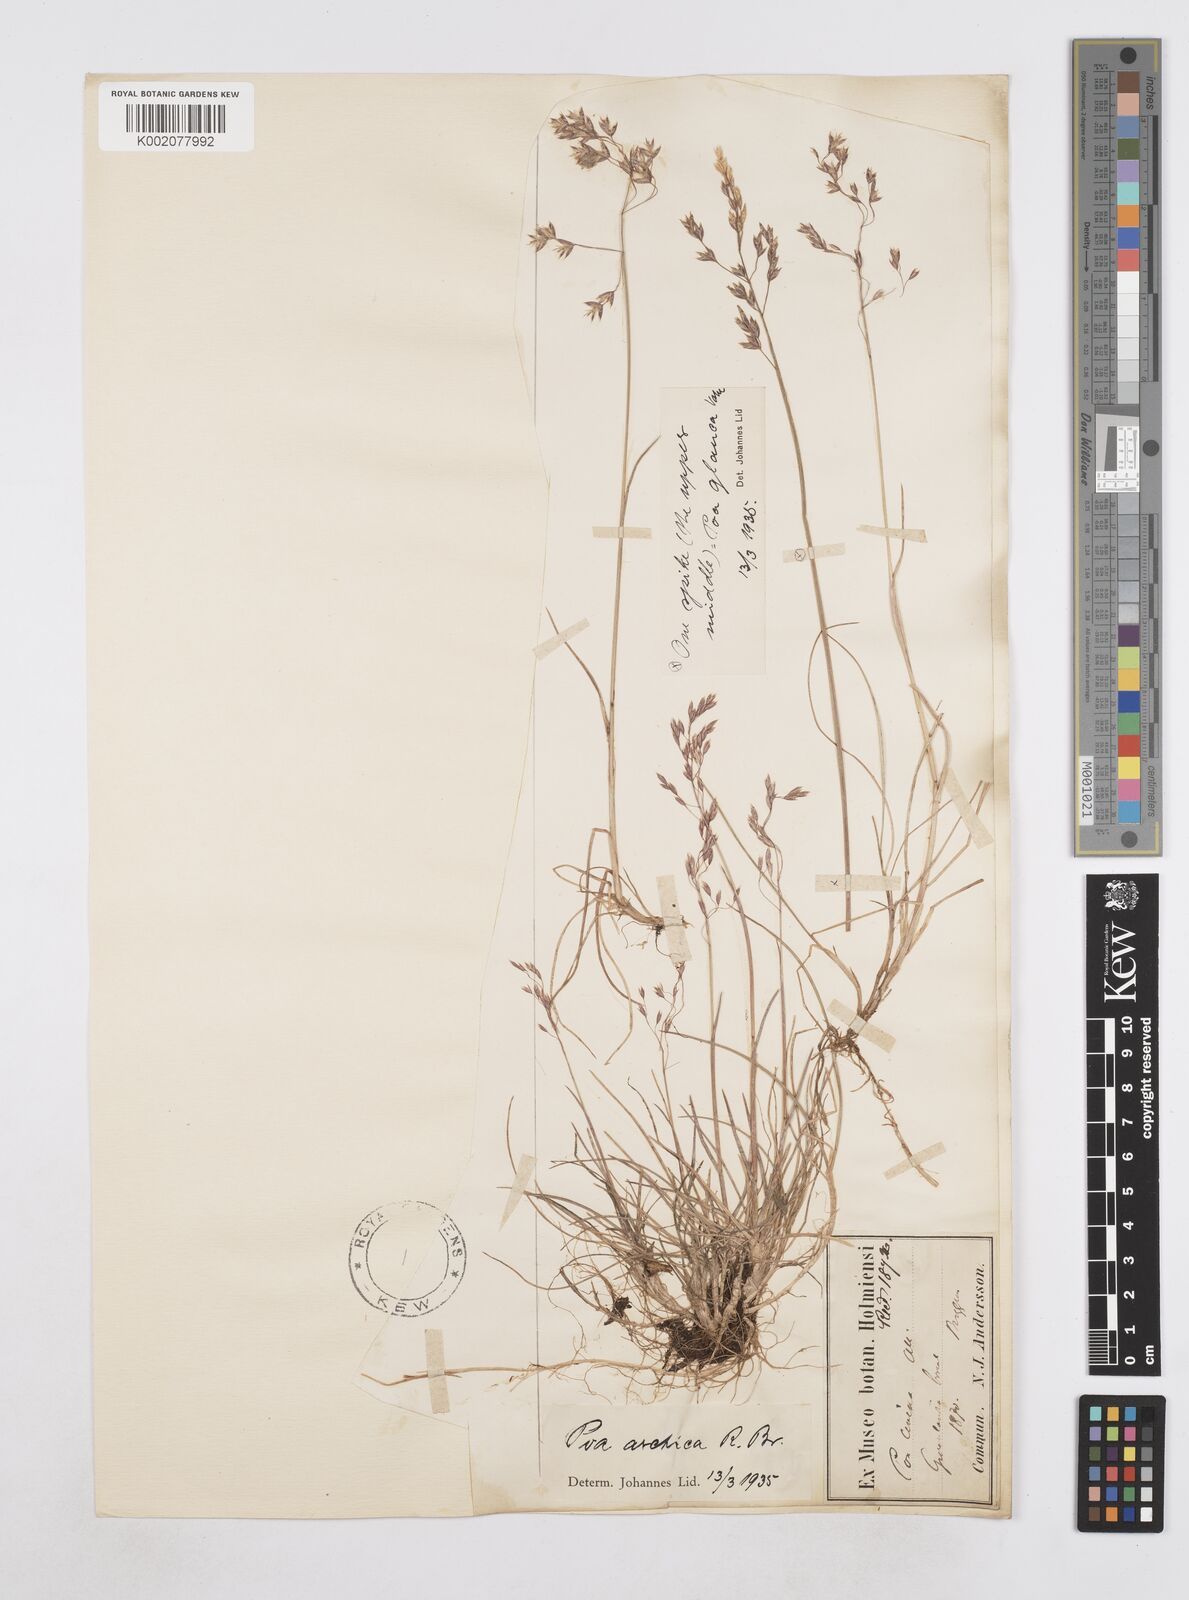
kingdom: Plantae
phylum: Tracheophyta
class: Liliopsida
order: Poales
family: Poaceae
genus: Poa
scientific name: Poa arctica
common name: Arctic bluegrass
